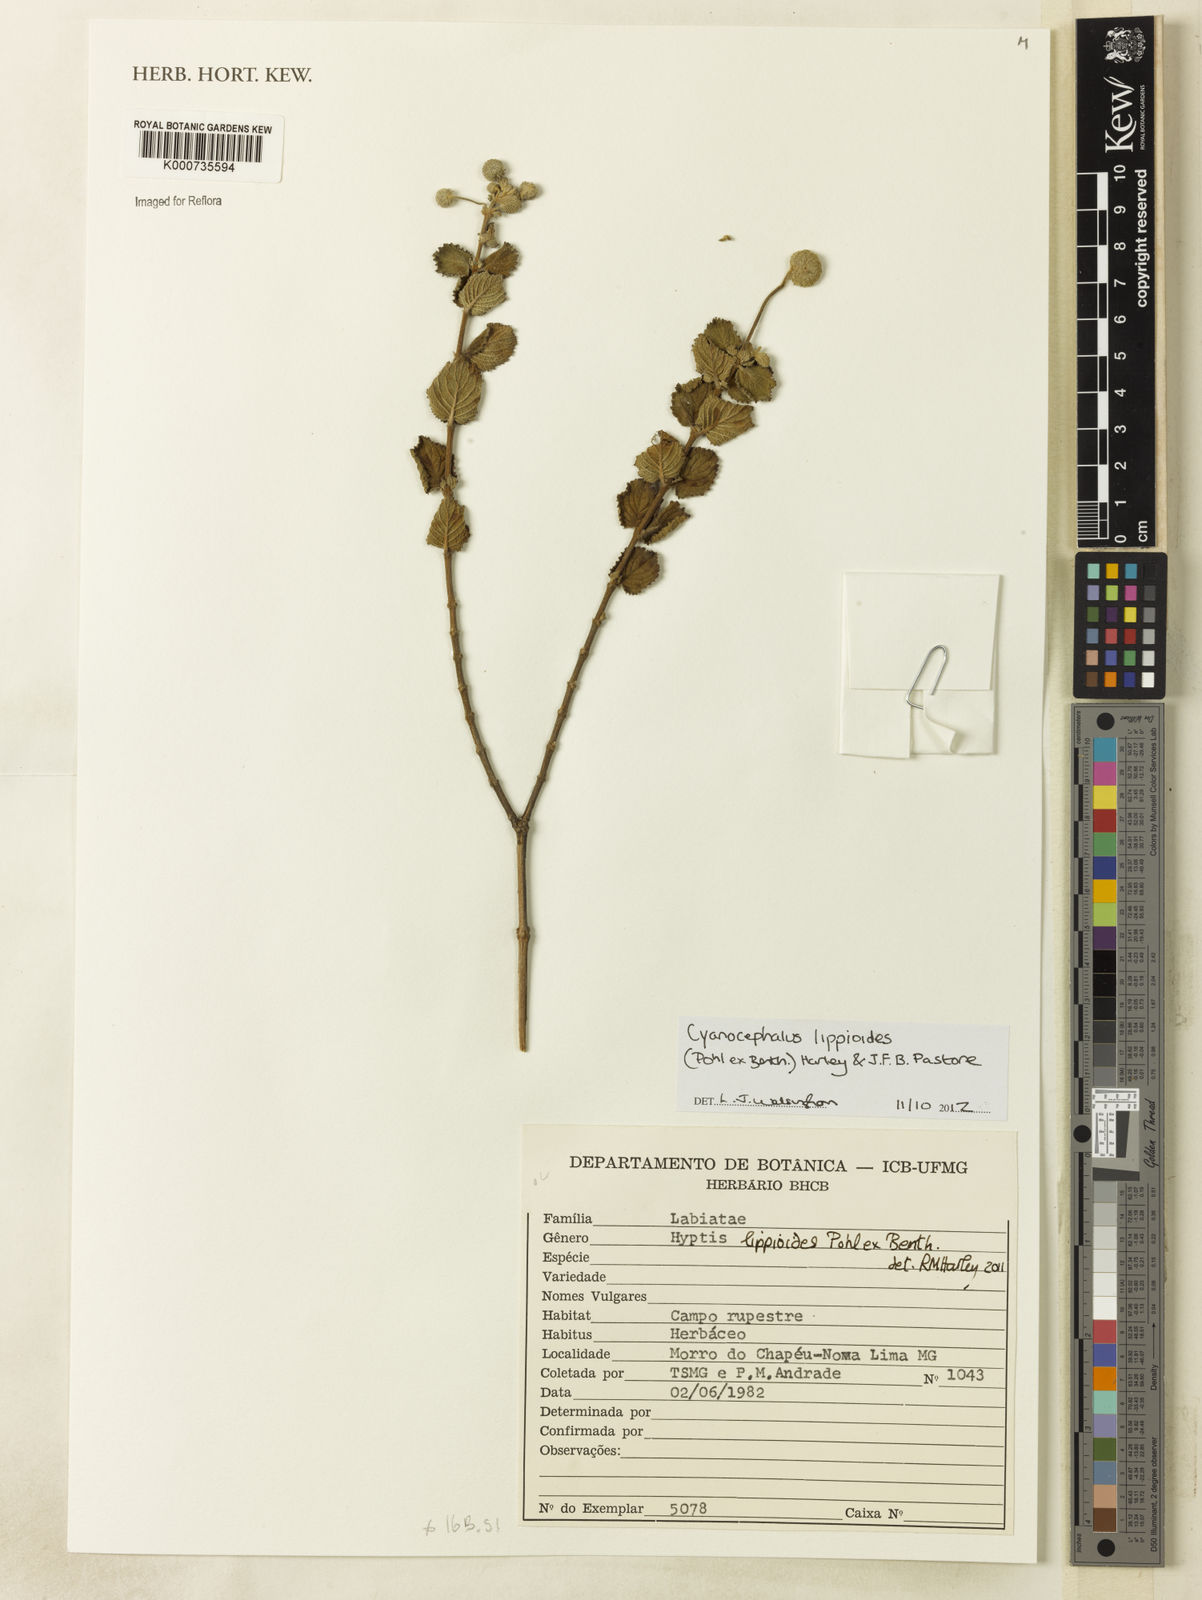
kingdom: Plantae
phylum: Tracheophyta
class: Magnoliopsida
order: Lamiales
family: Lamiaceae
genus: Cyanocephalus
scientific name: Cyanocephalus lippioides
